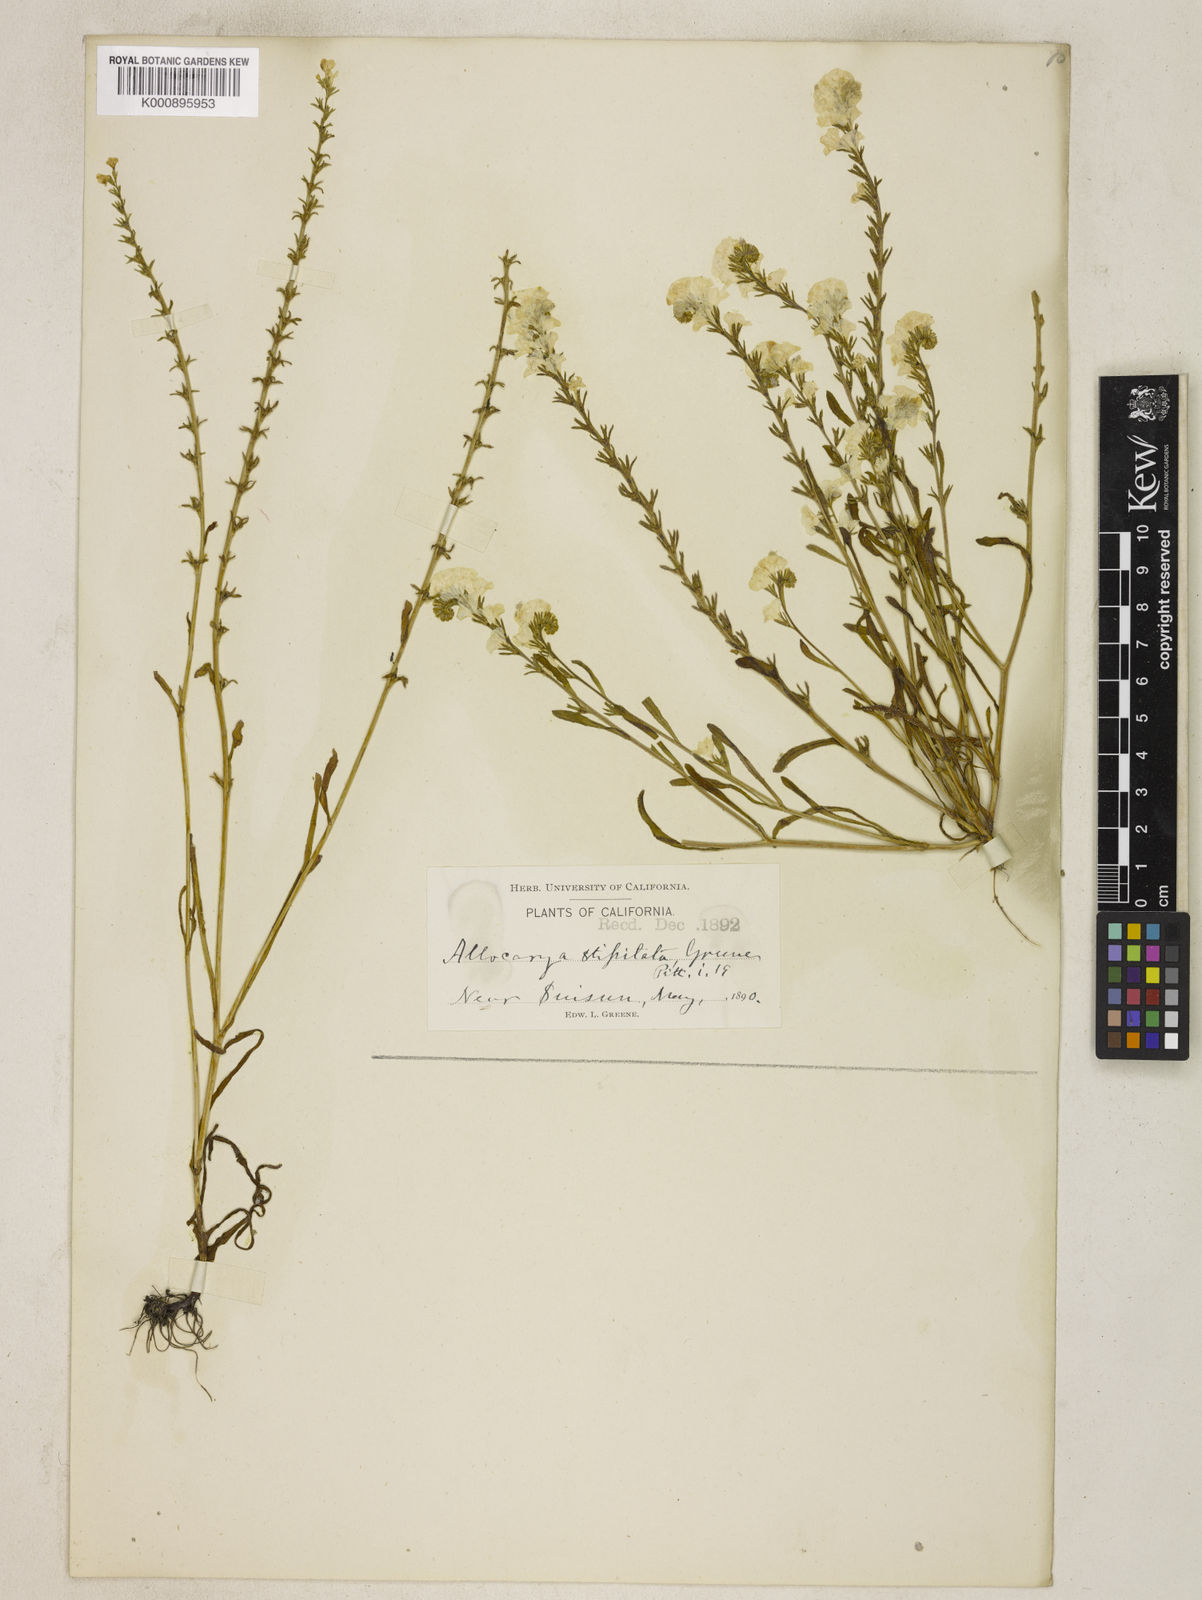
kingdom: Plantae
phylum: Tracheophyta
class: Magnoliopsida
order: Boraginales
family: Boraginaceae
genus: Plagiobothrys
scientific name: Plagiobothrys stipitatus
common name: Stipitate forget-me-not
